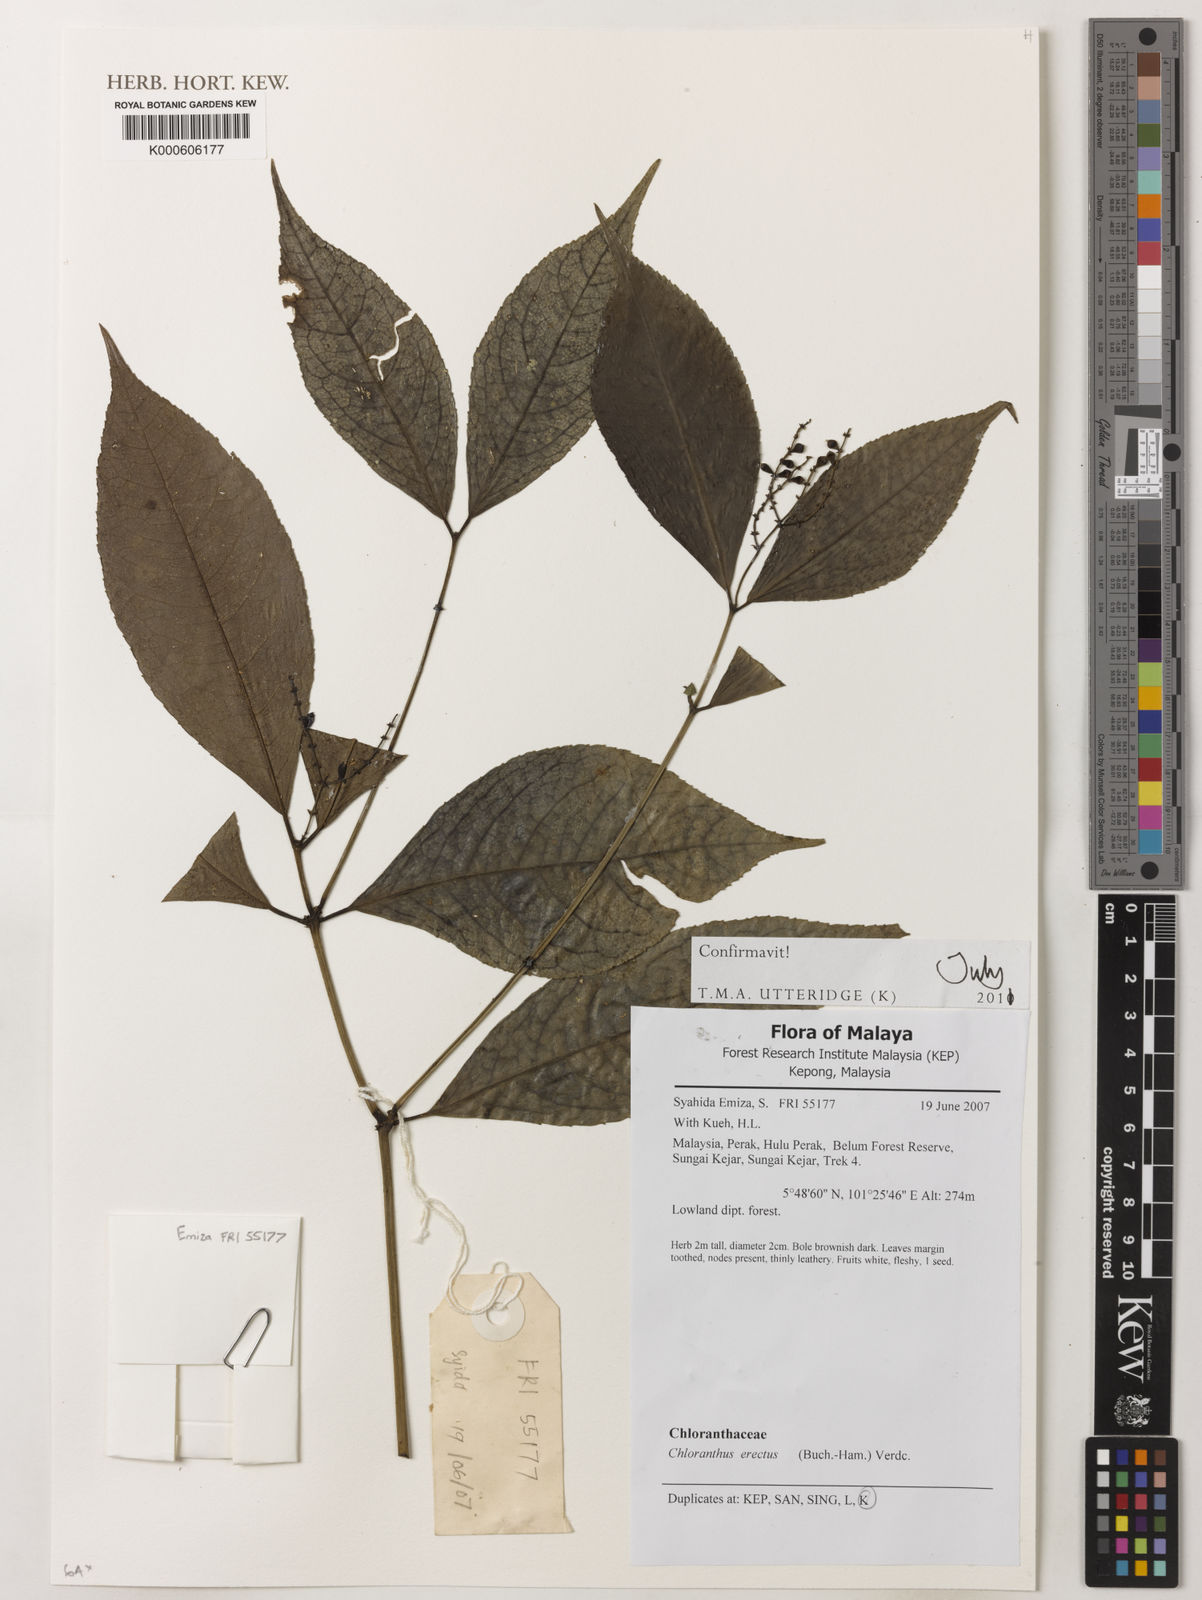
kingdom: Plantae
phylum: Tracheophyta
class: Magnoliopsida
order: Chloranthales
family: Chloranthaceae
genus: Chloranthus
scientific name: Chloranthus
